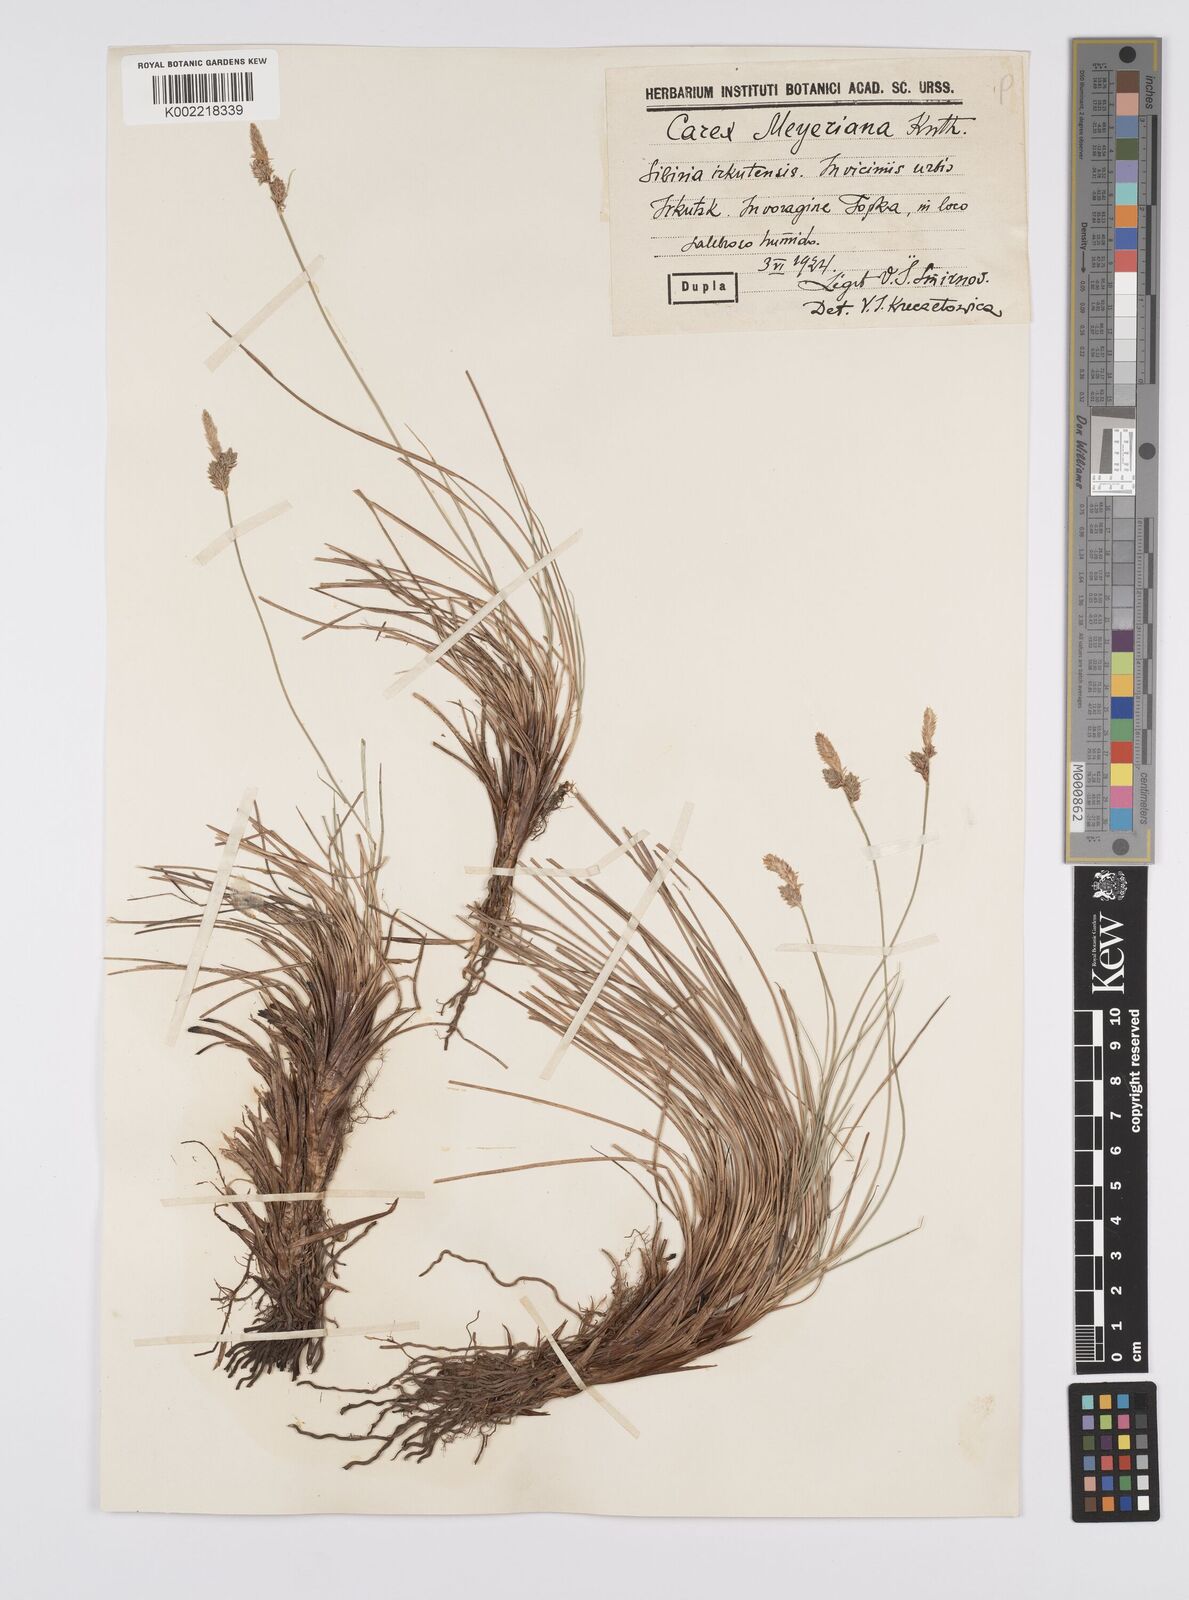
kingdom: Plantae
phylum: Tracheophyta
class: Liliopsida
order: Poales
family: Cyperaceae
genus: Carex
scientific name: Carex meyeriana
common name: Wula sedge
